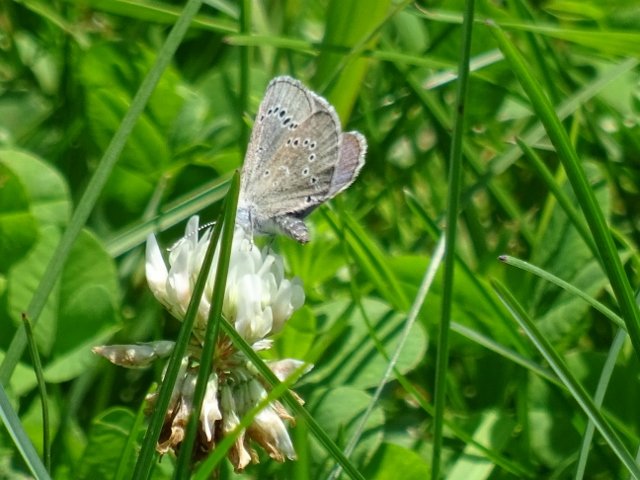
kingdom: Animalia
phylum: Arthropoda
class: Insecta
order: Lepidoptera
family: Lycaenidae
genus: Glaucopsyche
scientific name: Glaucopsyche lygdamus
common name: Silvery Blue
